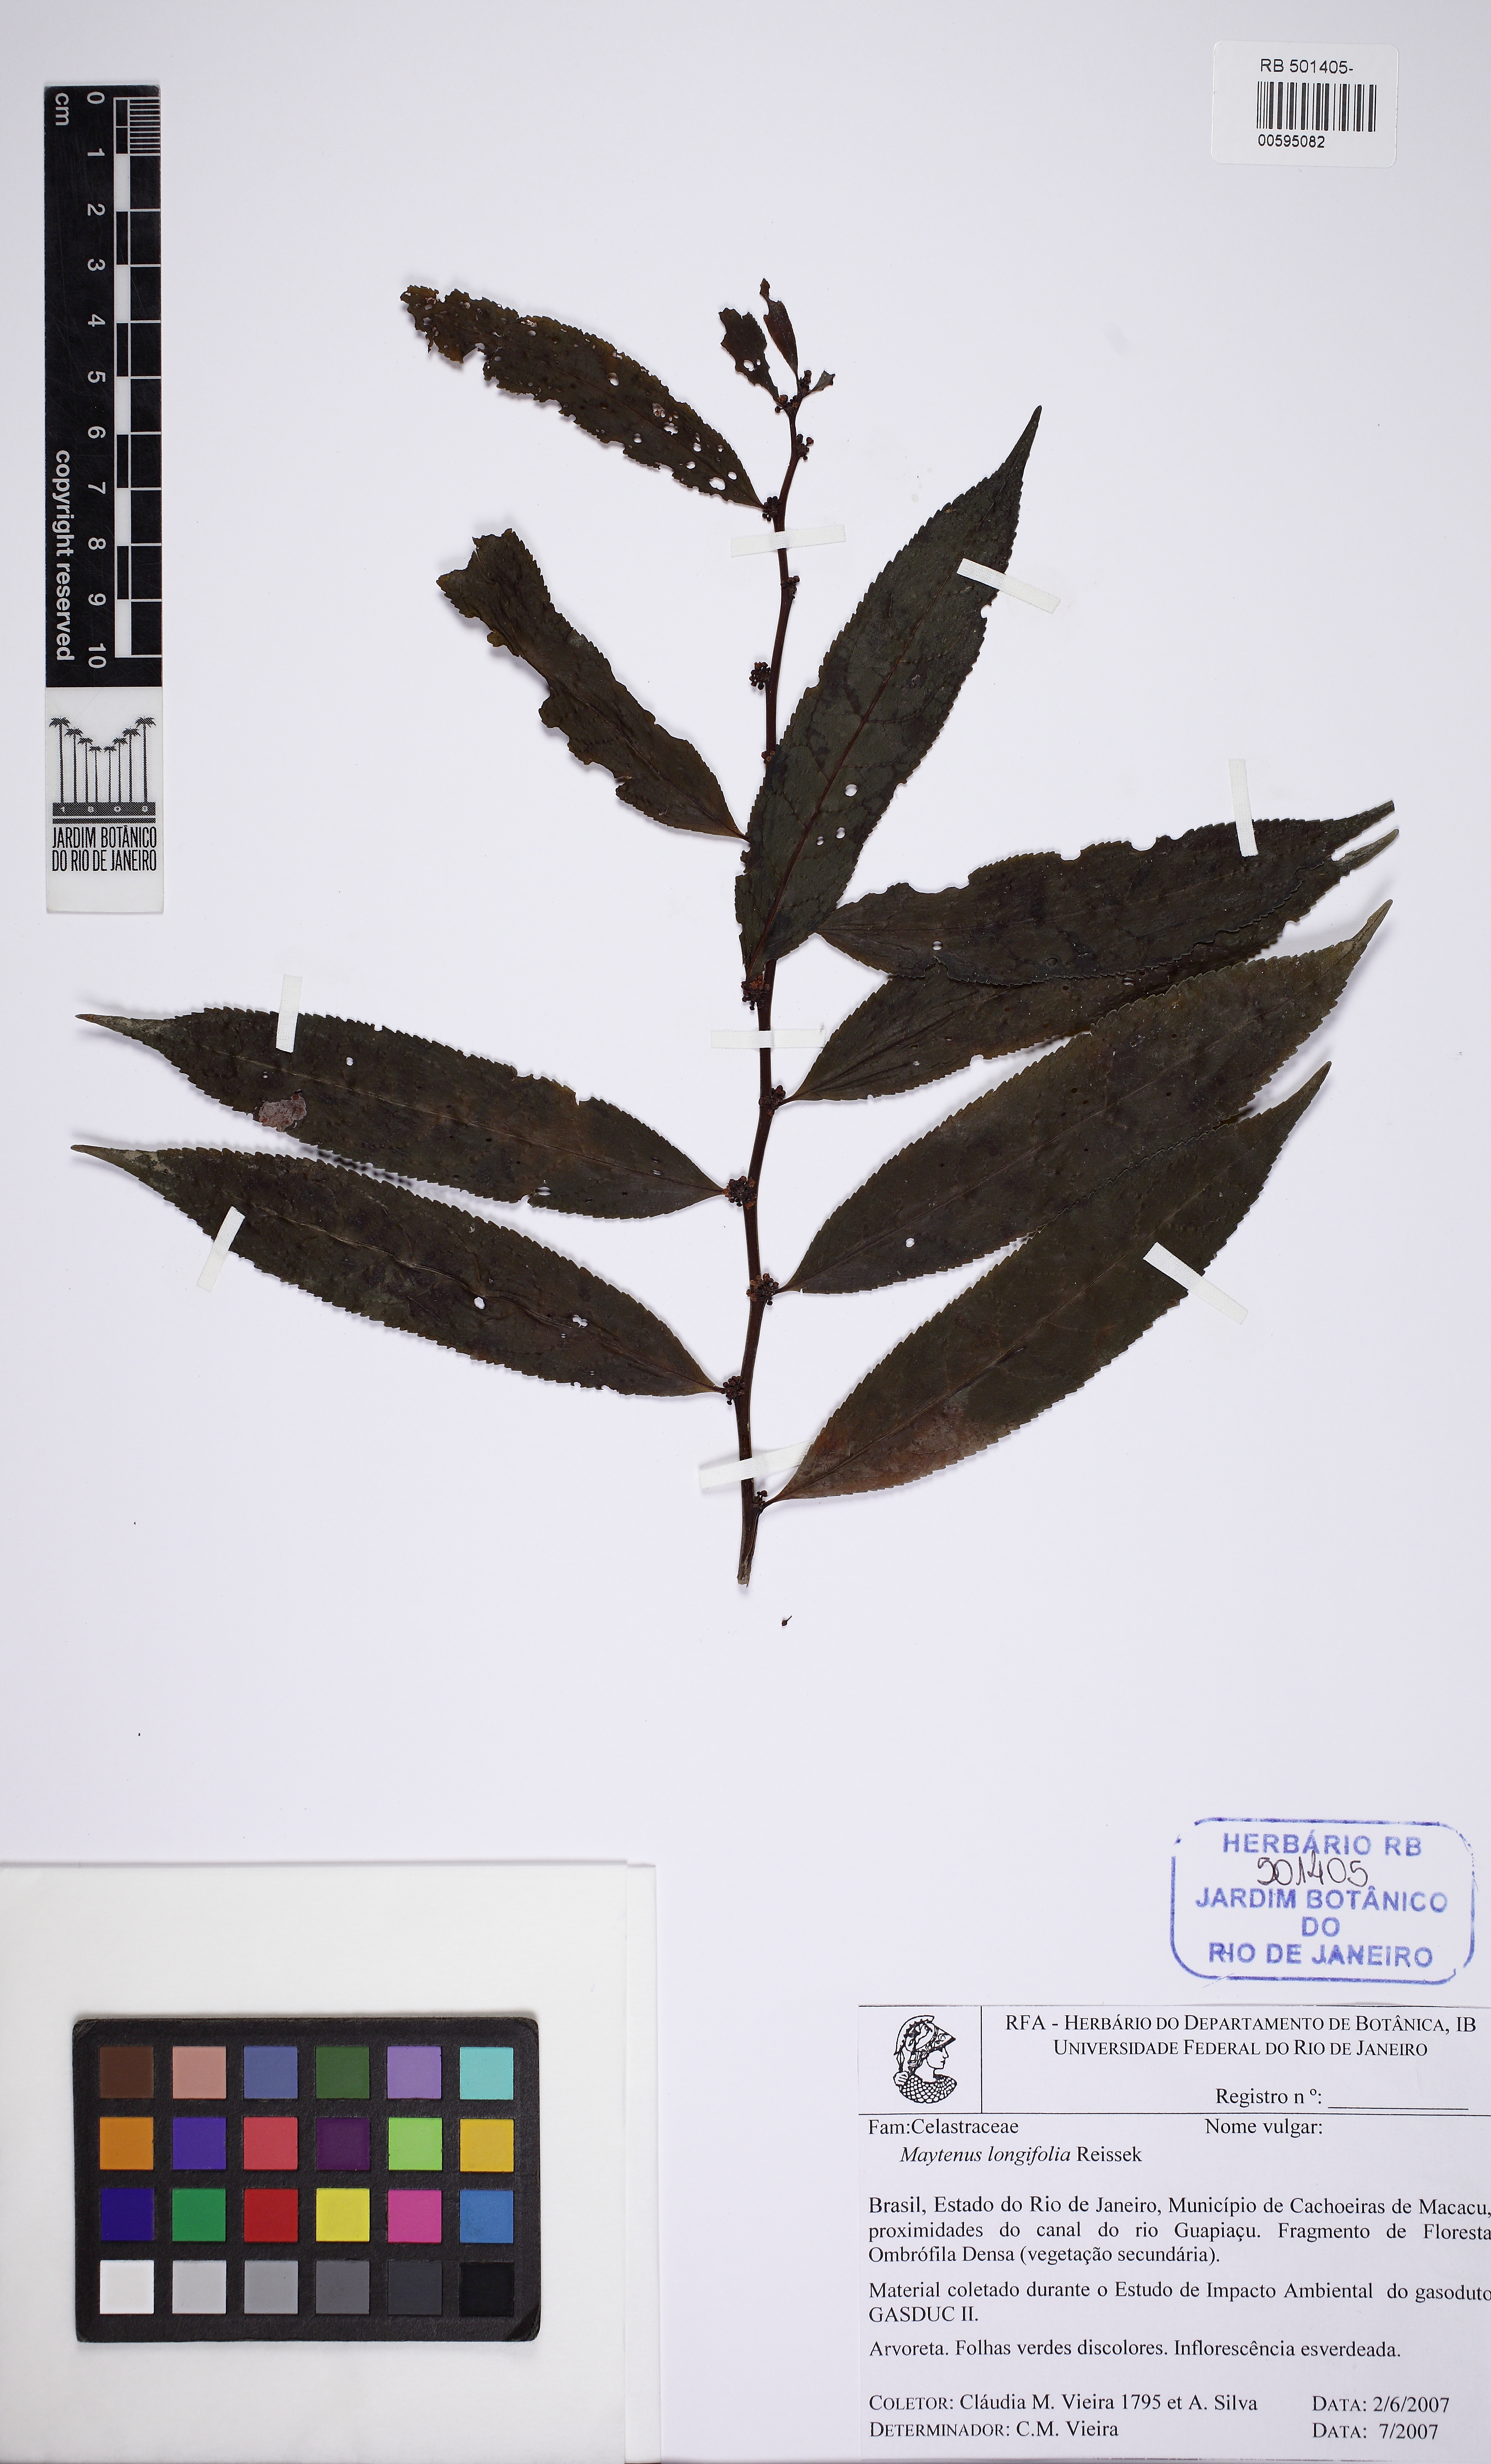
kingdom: Plantae
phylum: Tracheophyta
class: Magnoliopsida
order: Celastrales
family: Celastraceae
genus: Monteverdia
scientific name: Monteverdia longifolia
